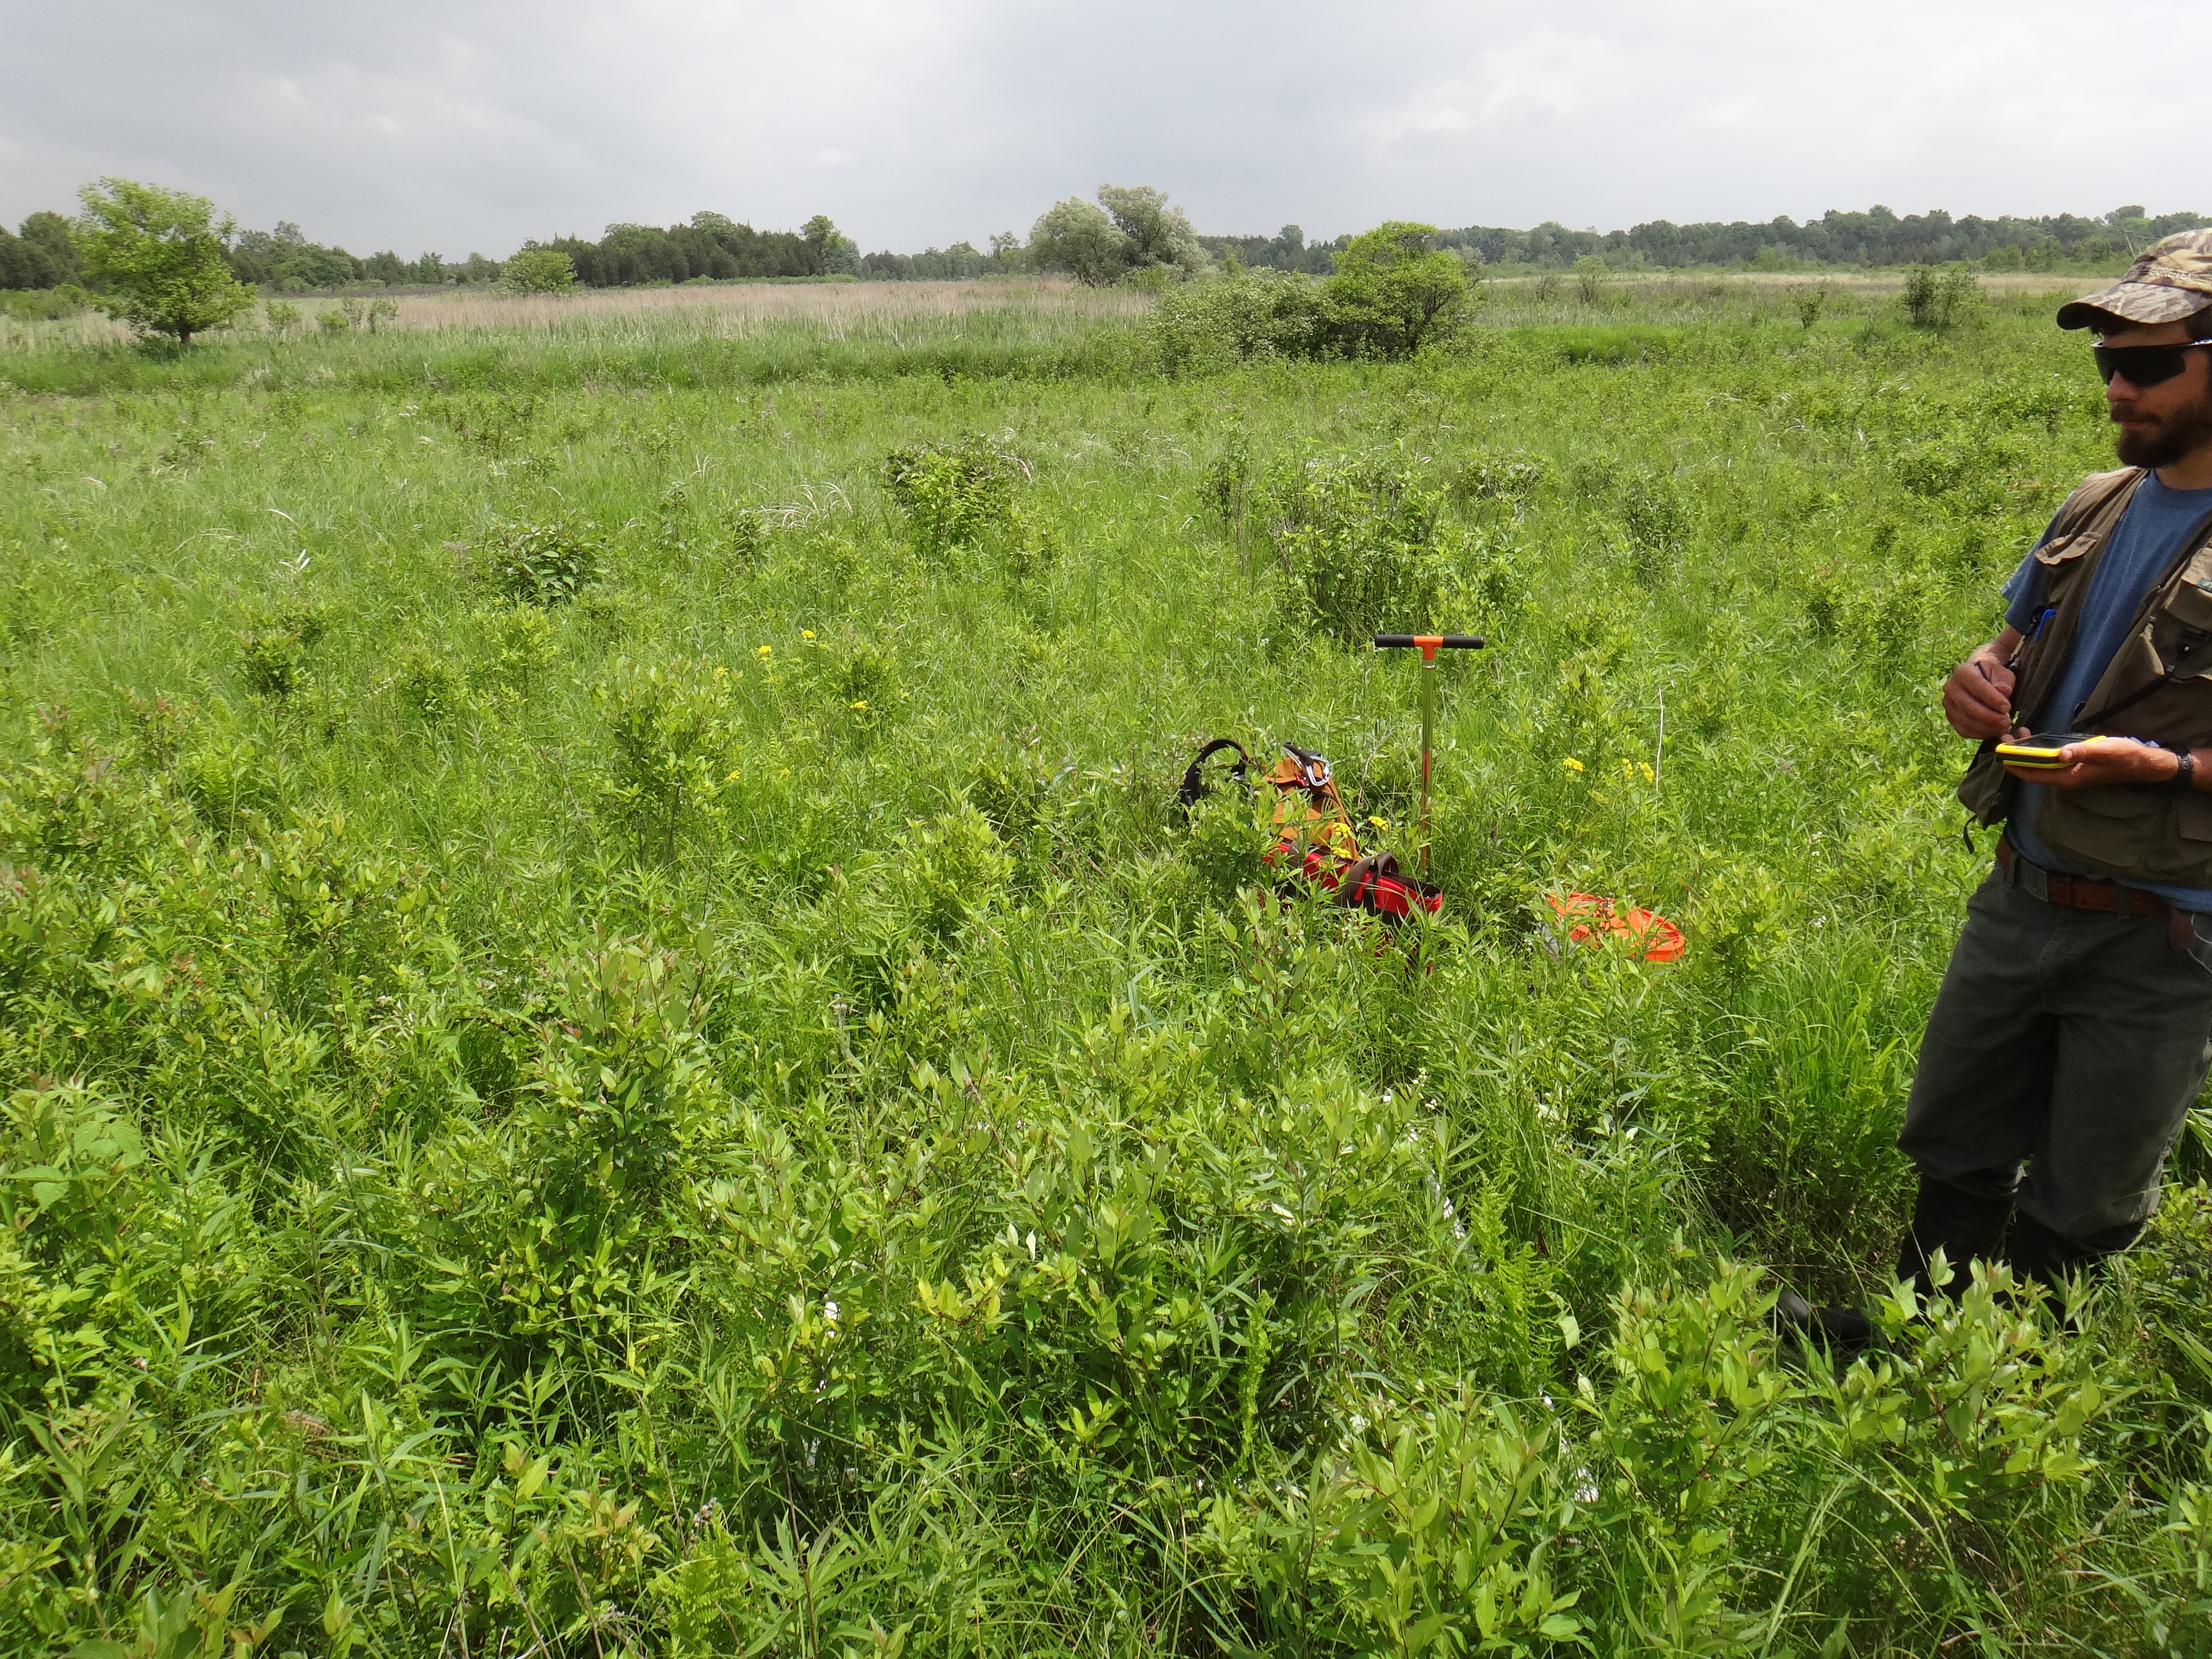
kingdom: Plantae
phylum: Tracheophyta
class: Liliopsida
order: Poales
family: Cyperaceae
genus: Carex
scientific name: Carex tetanica
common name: Rigid sedge
